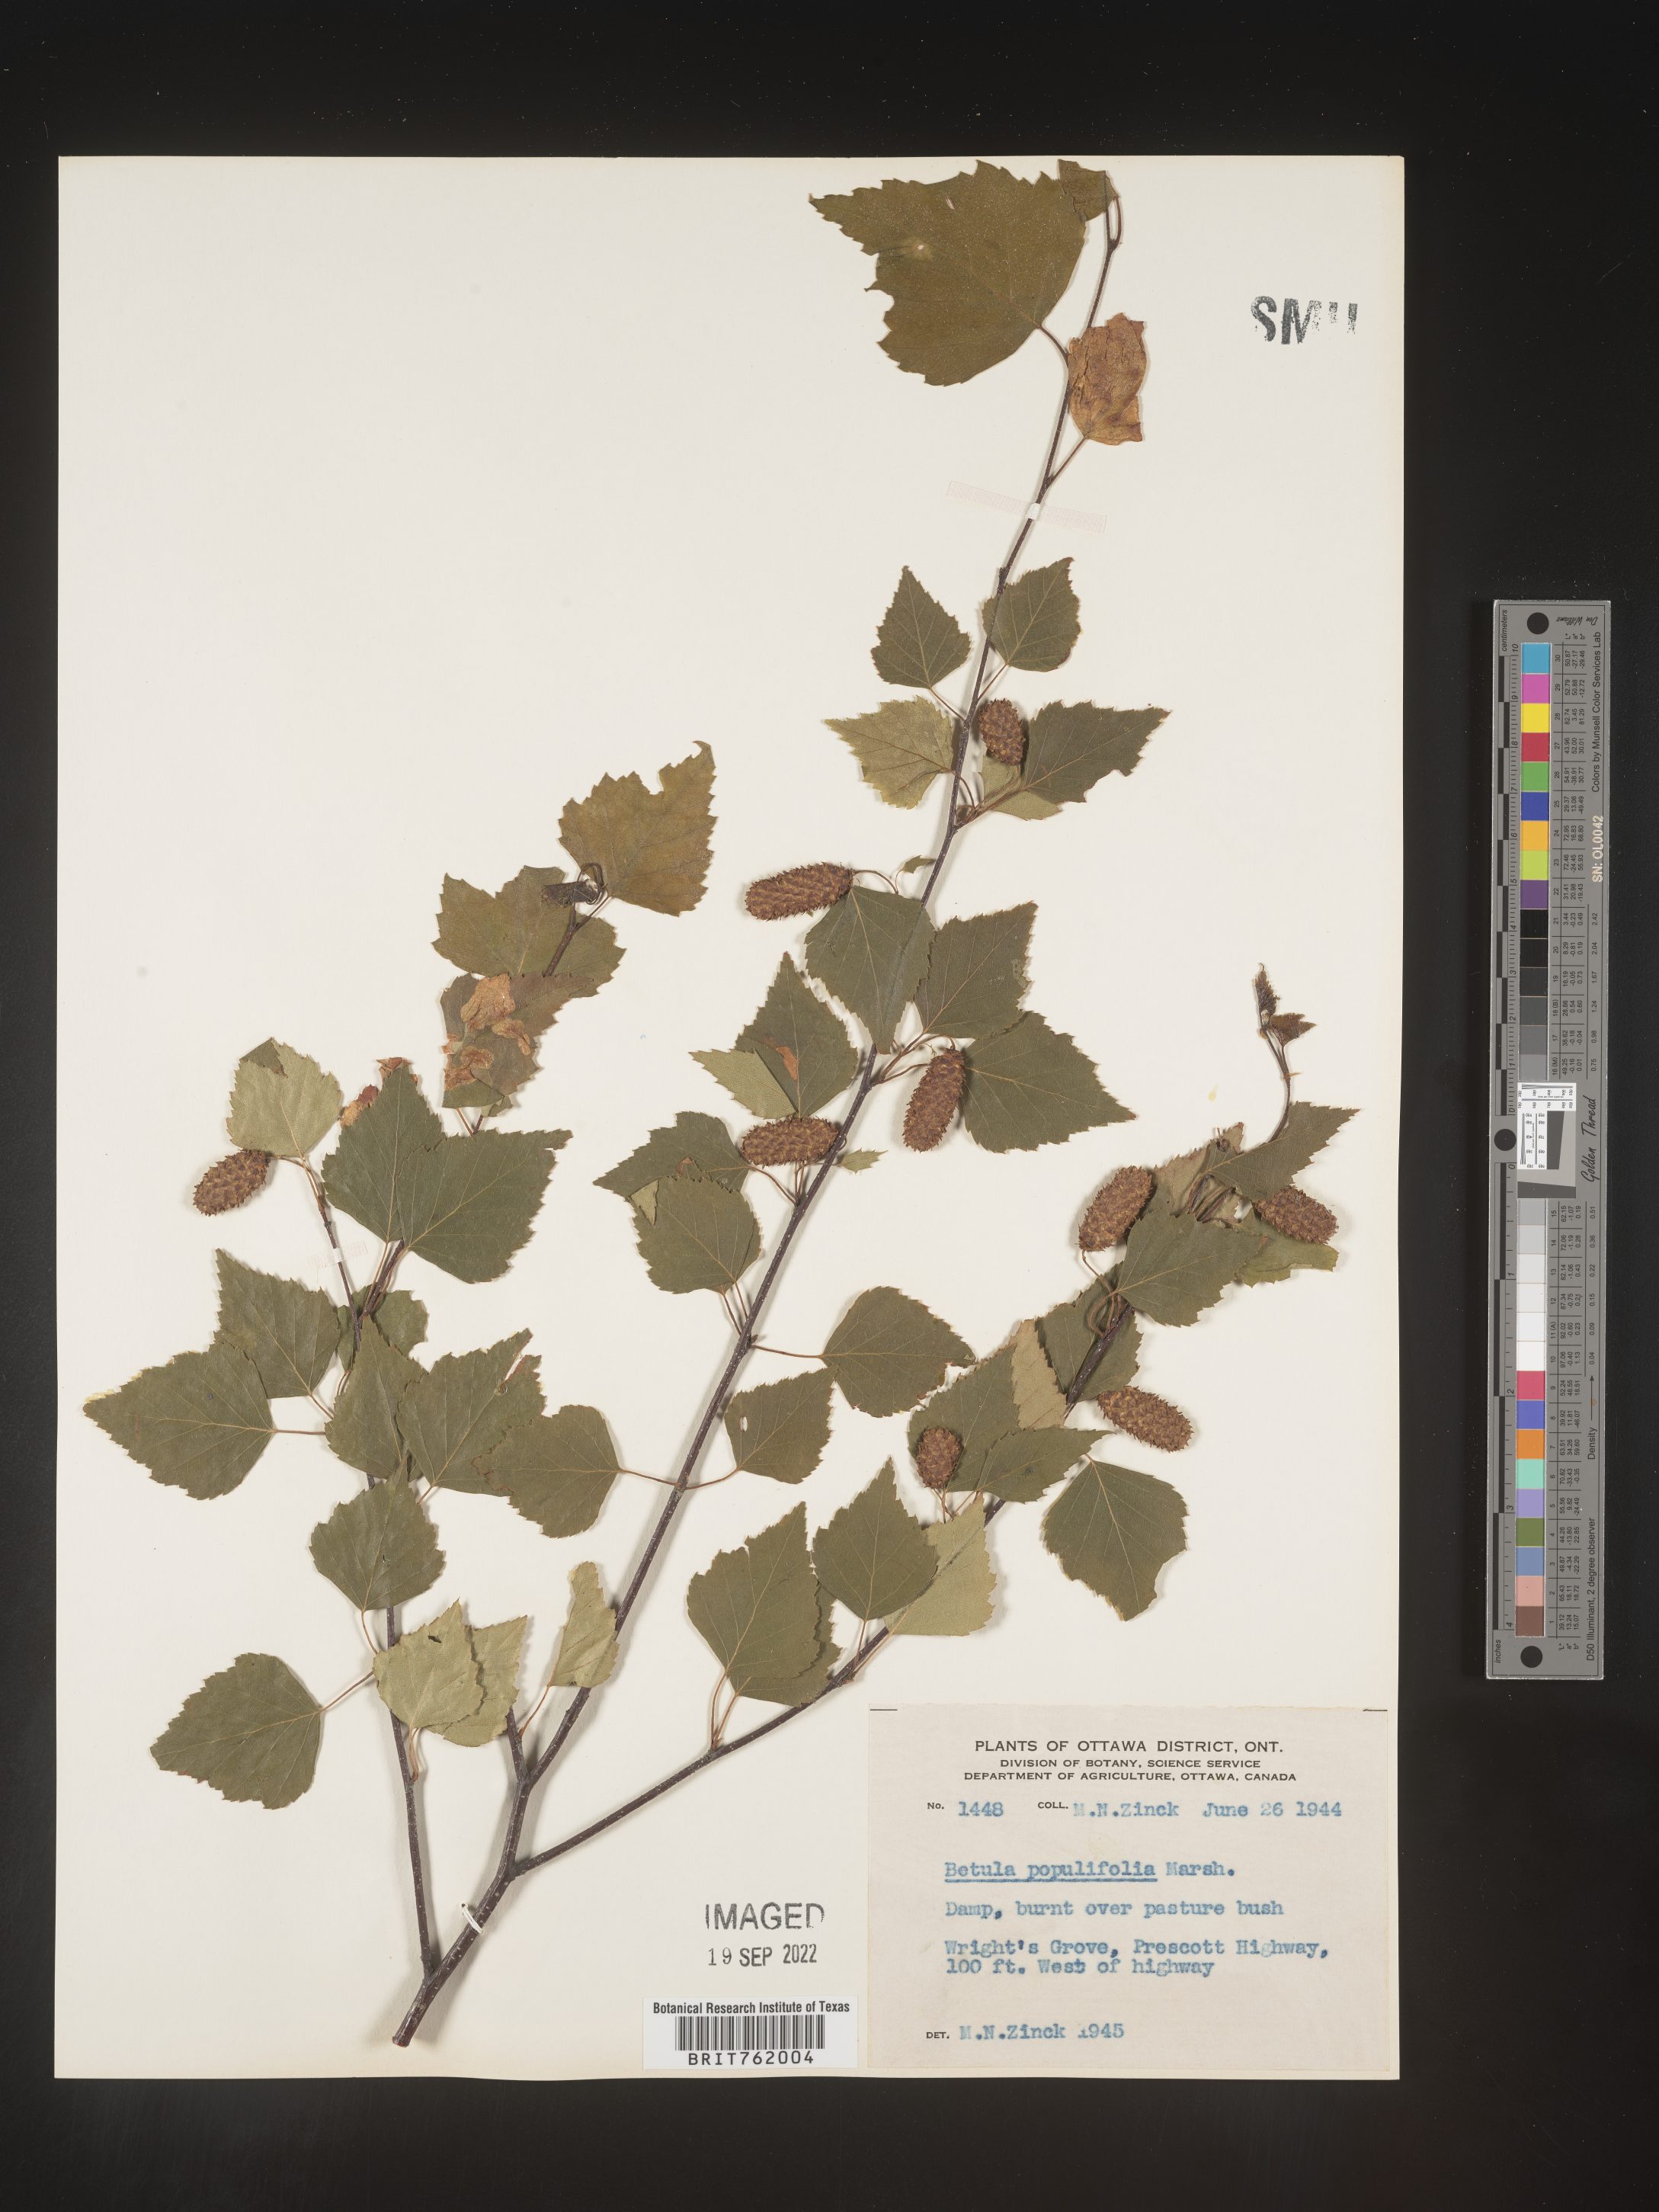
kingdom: Plantae
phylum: Tracheophyta
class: Magnoliopsida
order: Fagales
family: Betulaceae
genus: Betula
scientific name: Betula populifolia
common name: Fire birch
